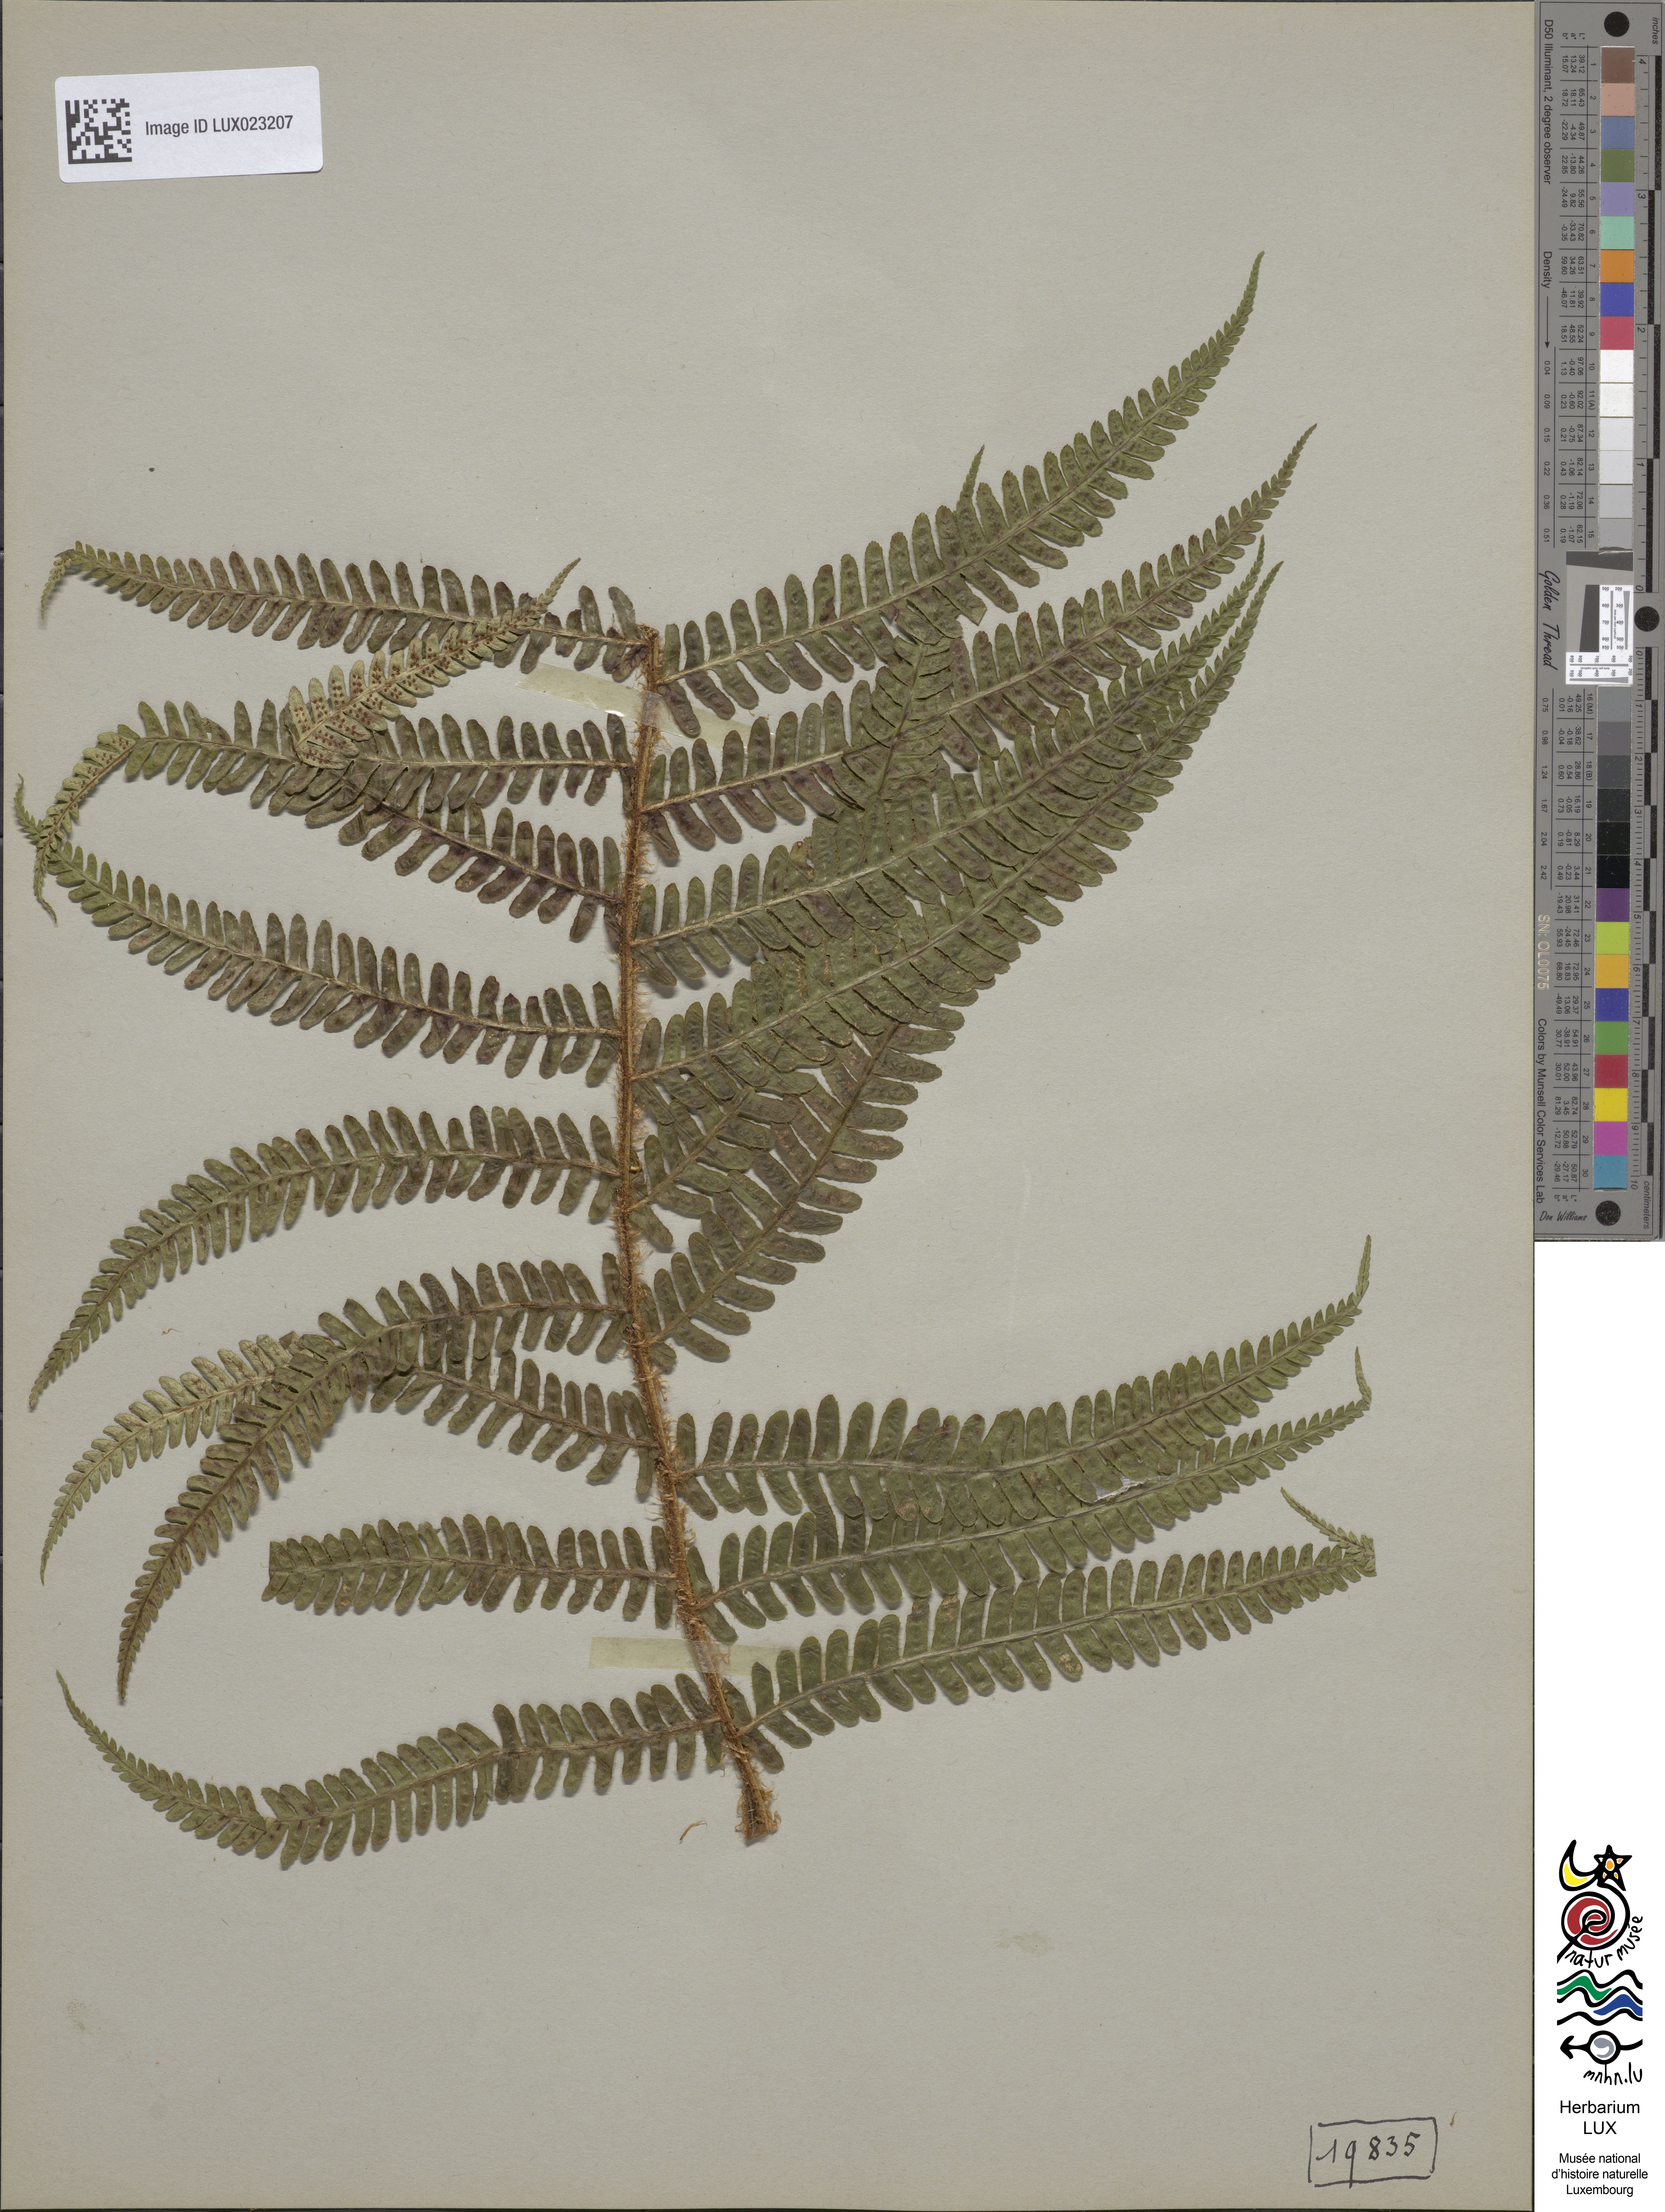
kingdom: Plantae
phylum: Tracheophyta
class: Polypodiopsida
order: Polypodiales
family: Dryopteridaceae
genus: Dryopteris
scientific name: Dryopteris paleacea
